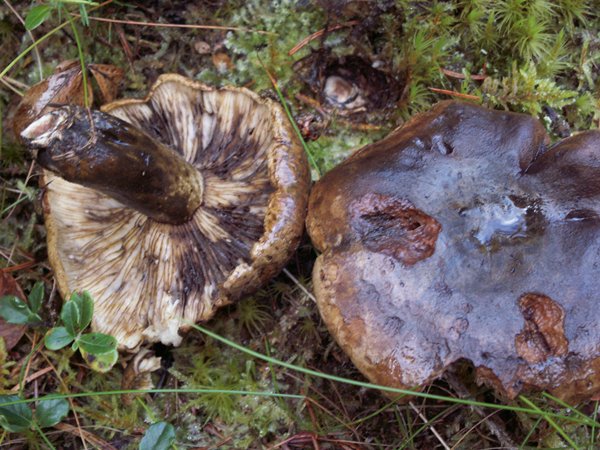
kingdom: Fungi
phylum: Basidiomycota
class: Agaricomycetes
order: Russulales
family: Russulaceae
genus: Lactarius
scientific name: Lactarius necator
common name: manddraber-mælkehat
